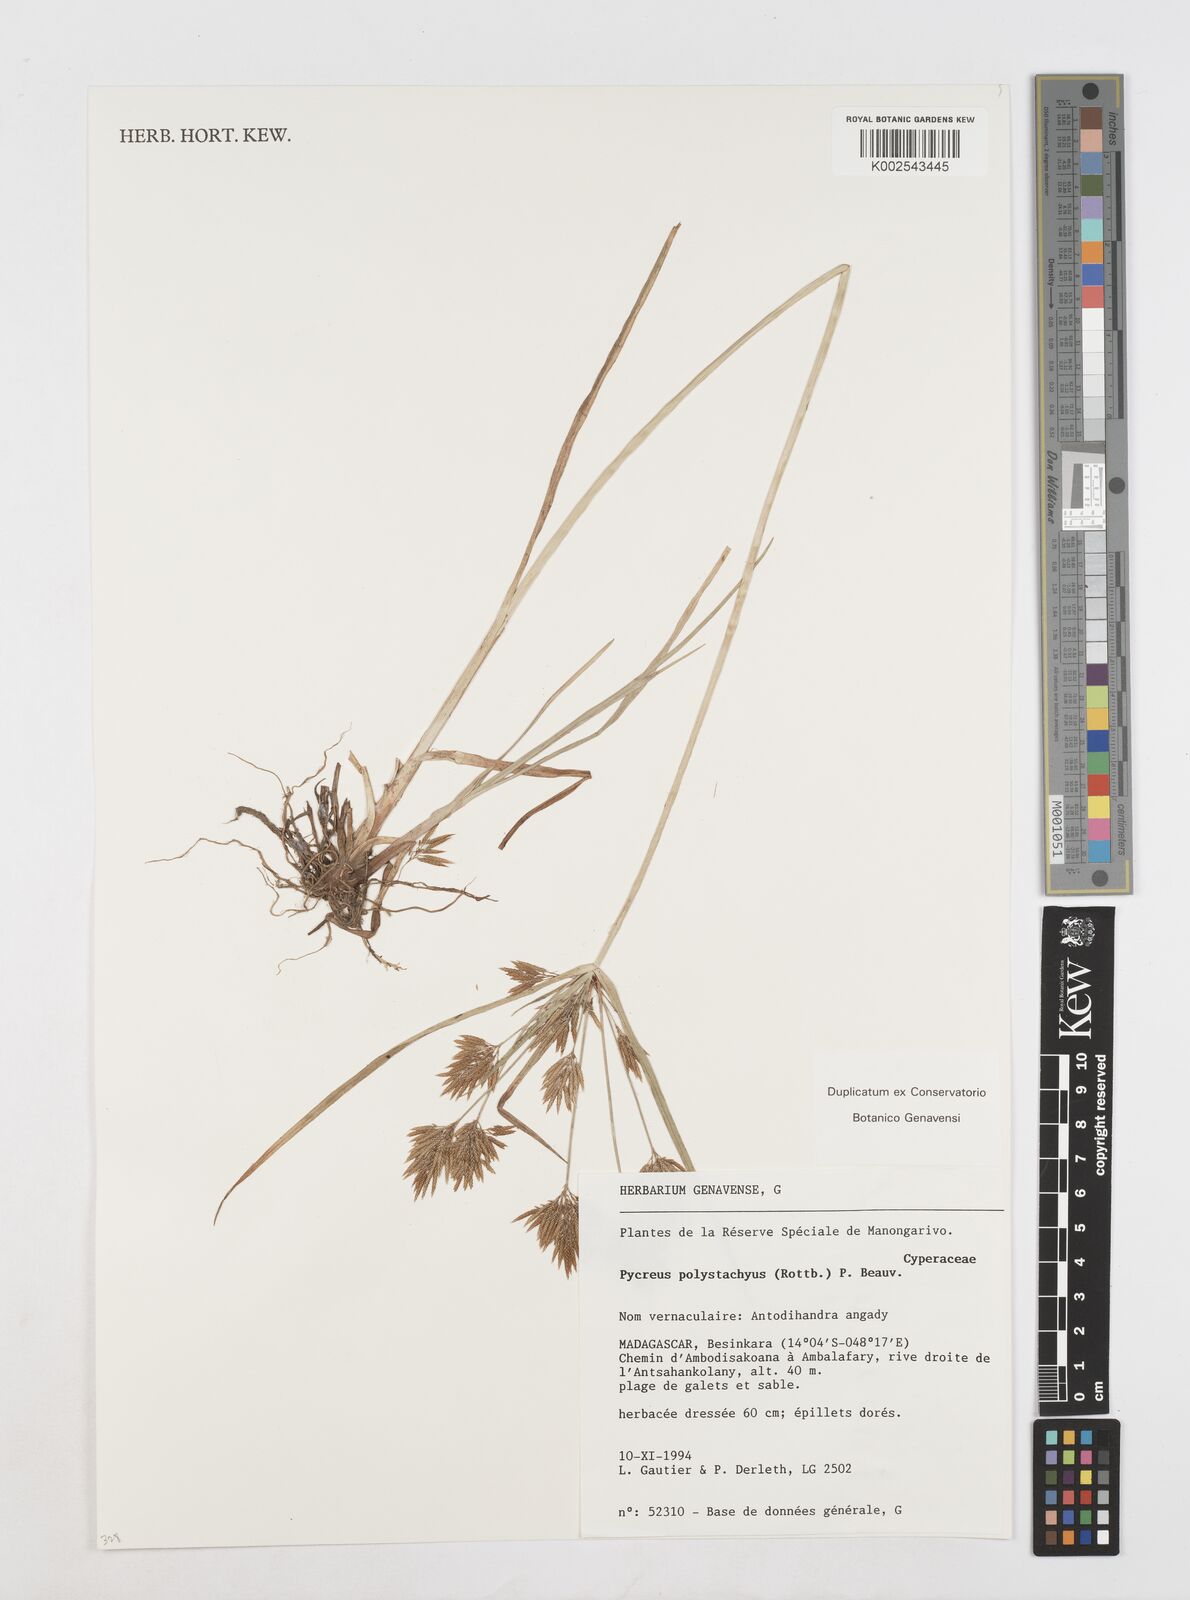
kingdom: Plantae
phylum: Tracheophyta
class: Liliopsida
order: Poales
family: Cyperaceae
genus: Cyperus
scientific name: Cyperus polystachyos
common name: Bunchy flat sedge
